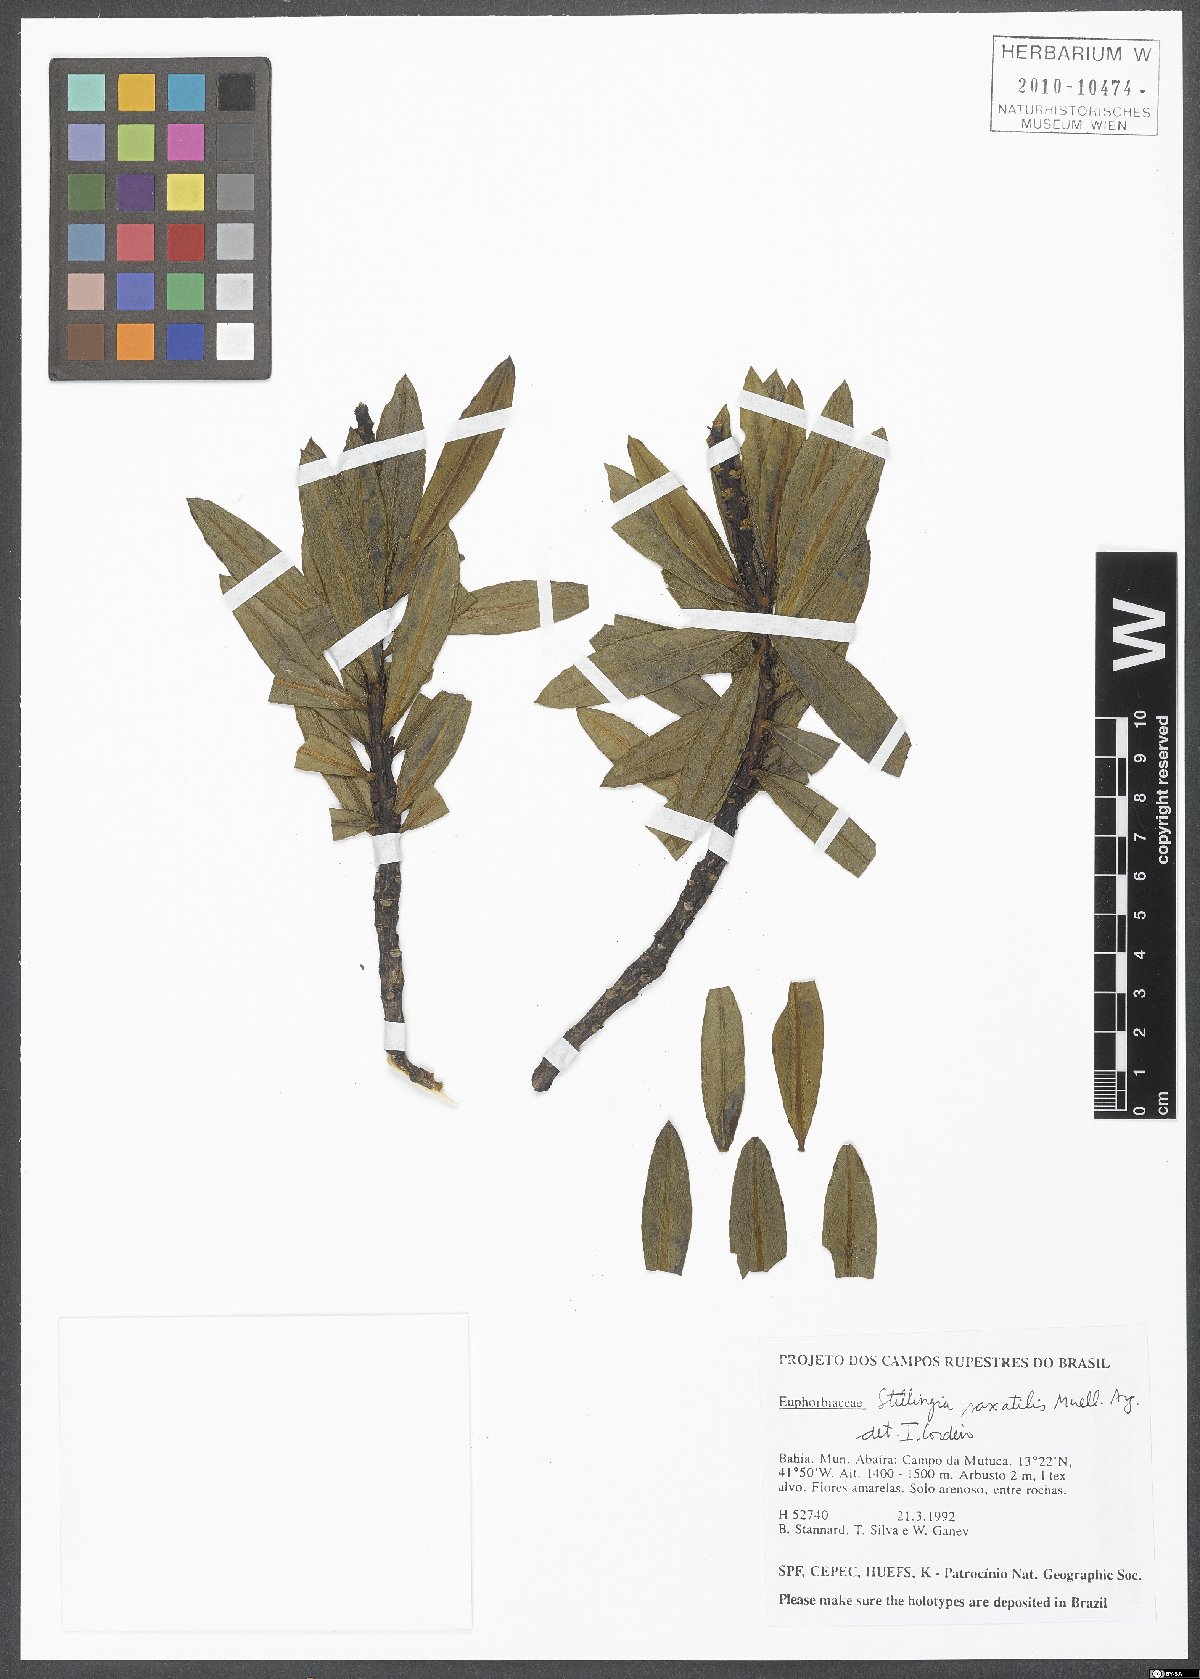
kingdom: Plantae
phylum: Tracheophyta
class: Magnoliopsida
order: Malpighiales
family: Euphorbiaceae
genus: Stillingia
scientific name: Stillingia saxatilis
